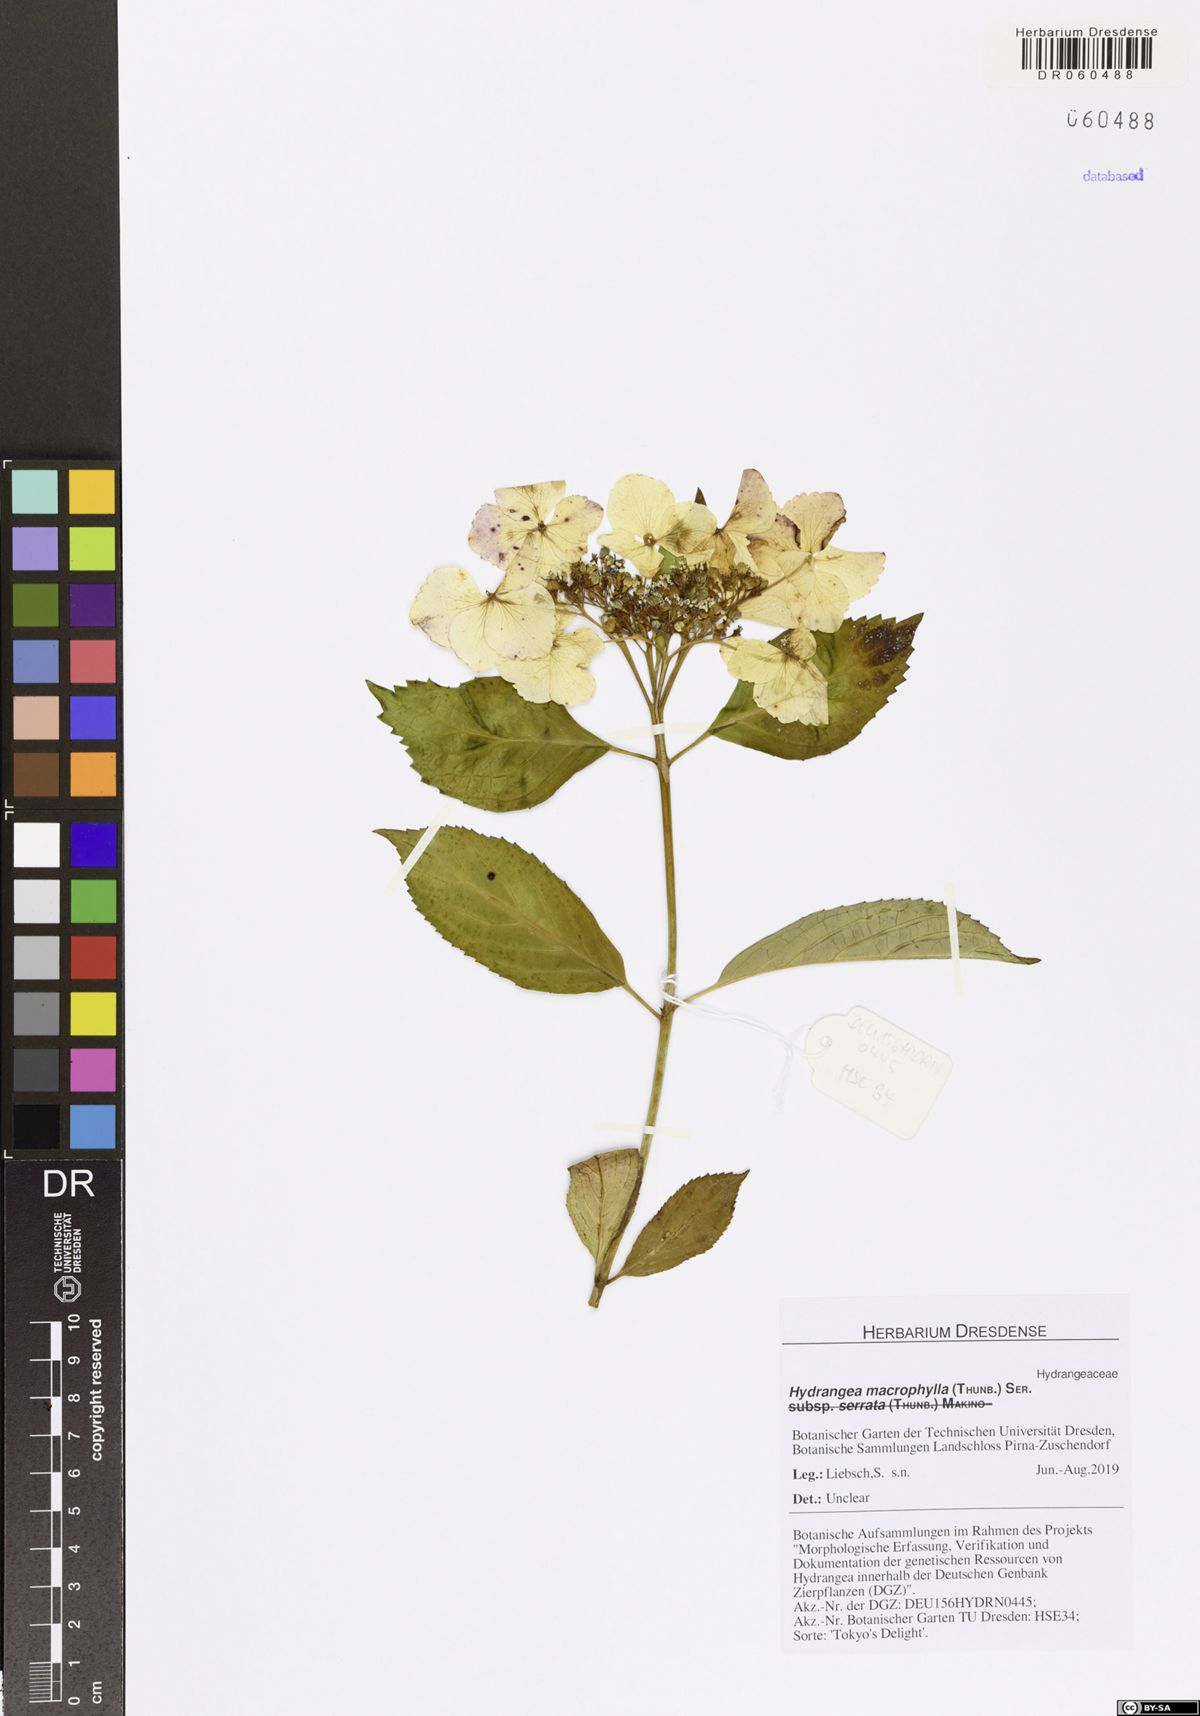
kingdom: Plantae
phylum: Tracheophyta
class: Magnoliopsida
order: Cornales
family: Hydrangeaceae
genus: Hydrangea
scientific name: Hydrangea macrophylla
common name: Hydrangea
